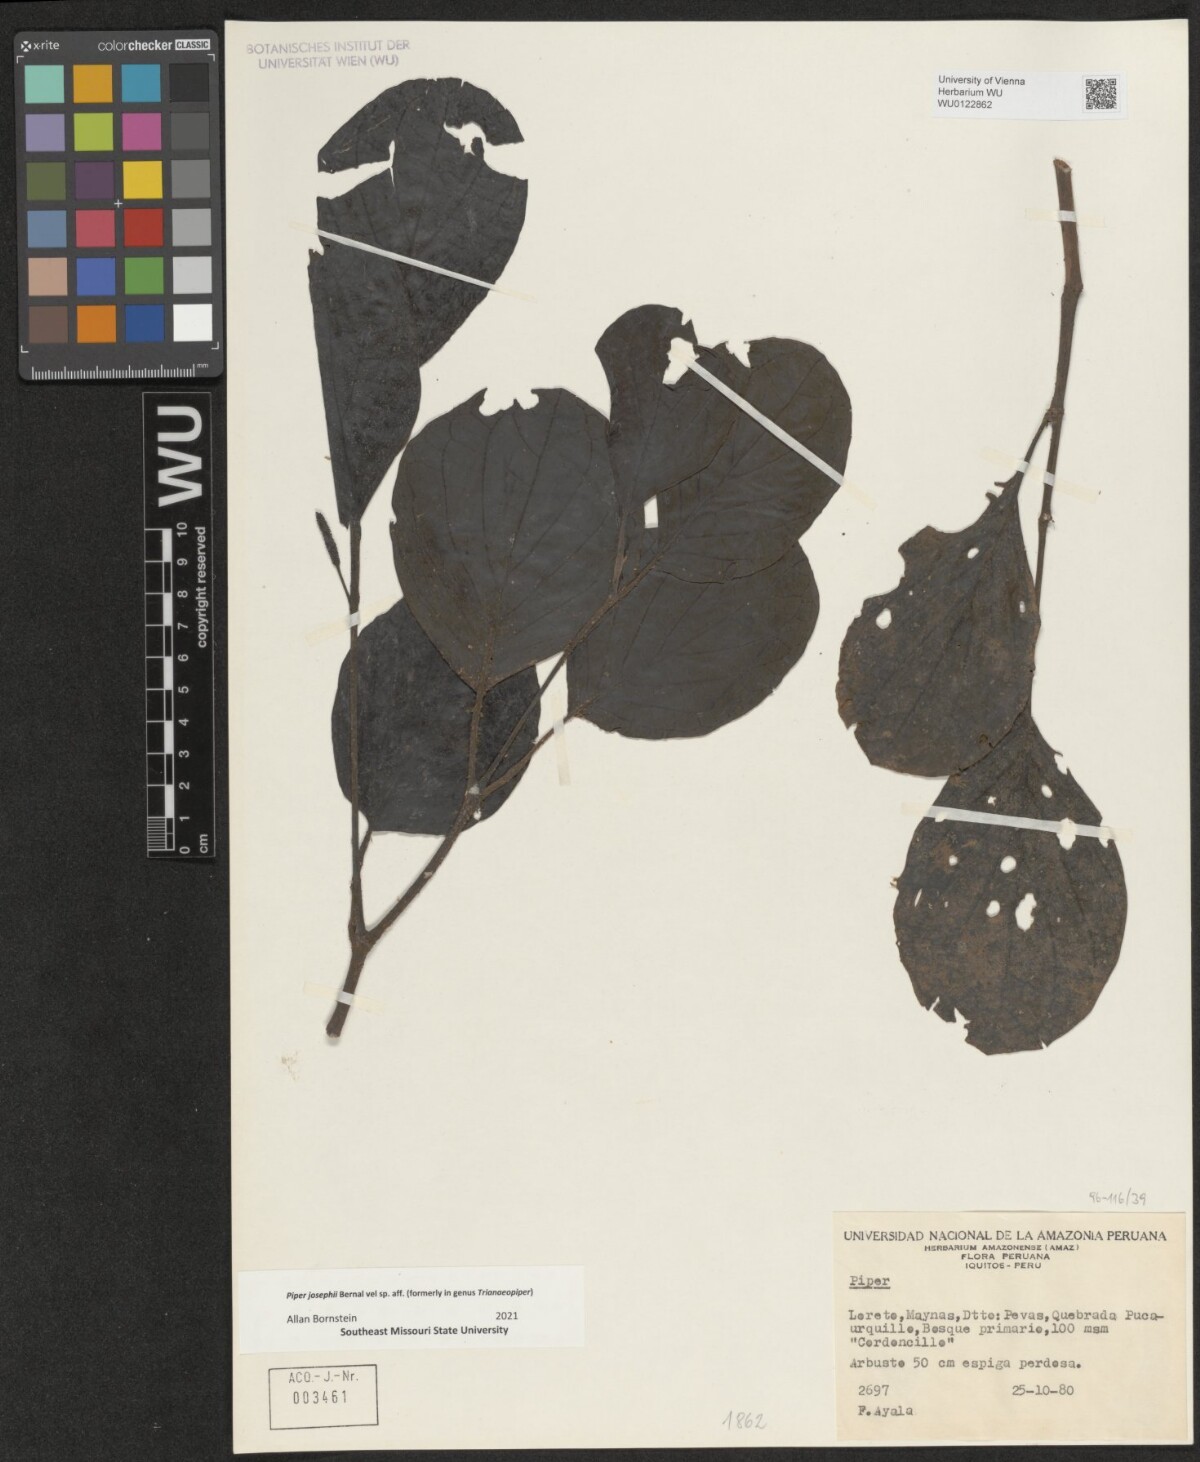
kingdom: Plantae
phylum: Tracheophyta
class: Magnoliopsida
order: Piperales
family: Piperaceae
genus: Piper
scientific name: Piper josephii
